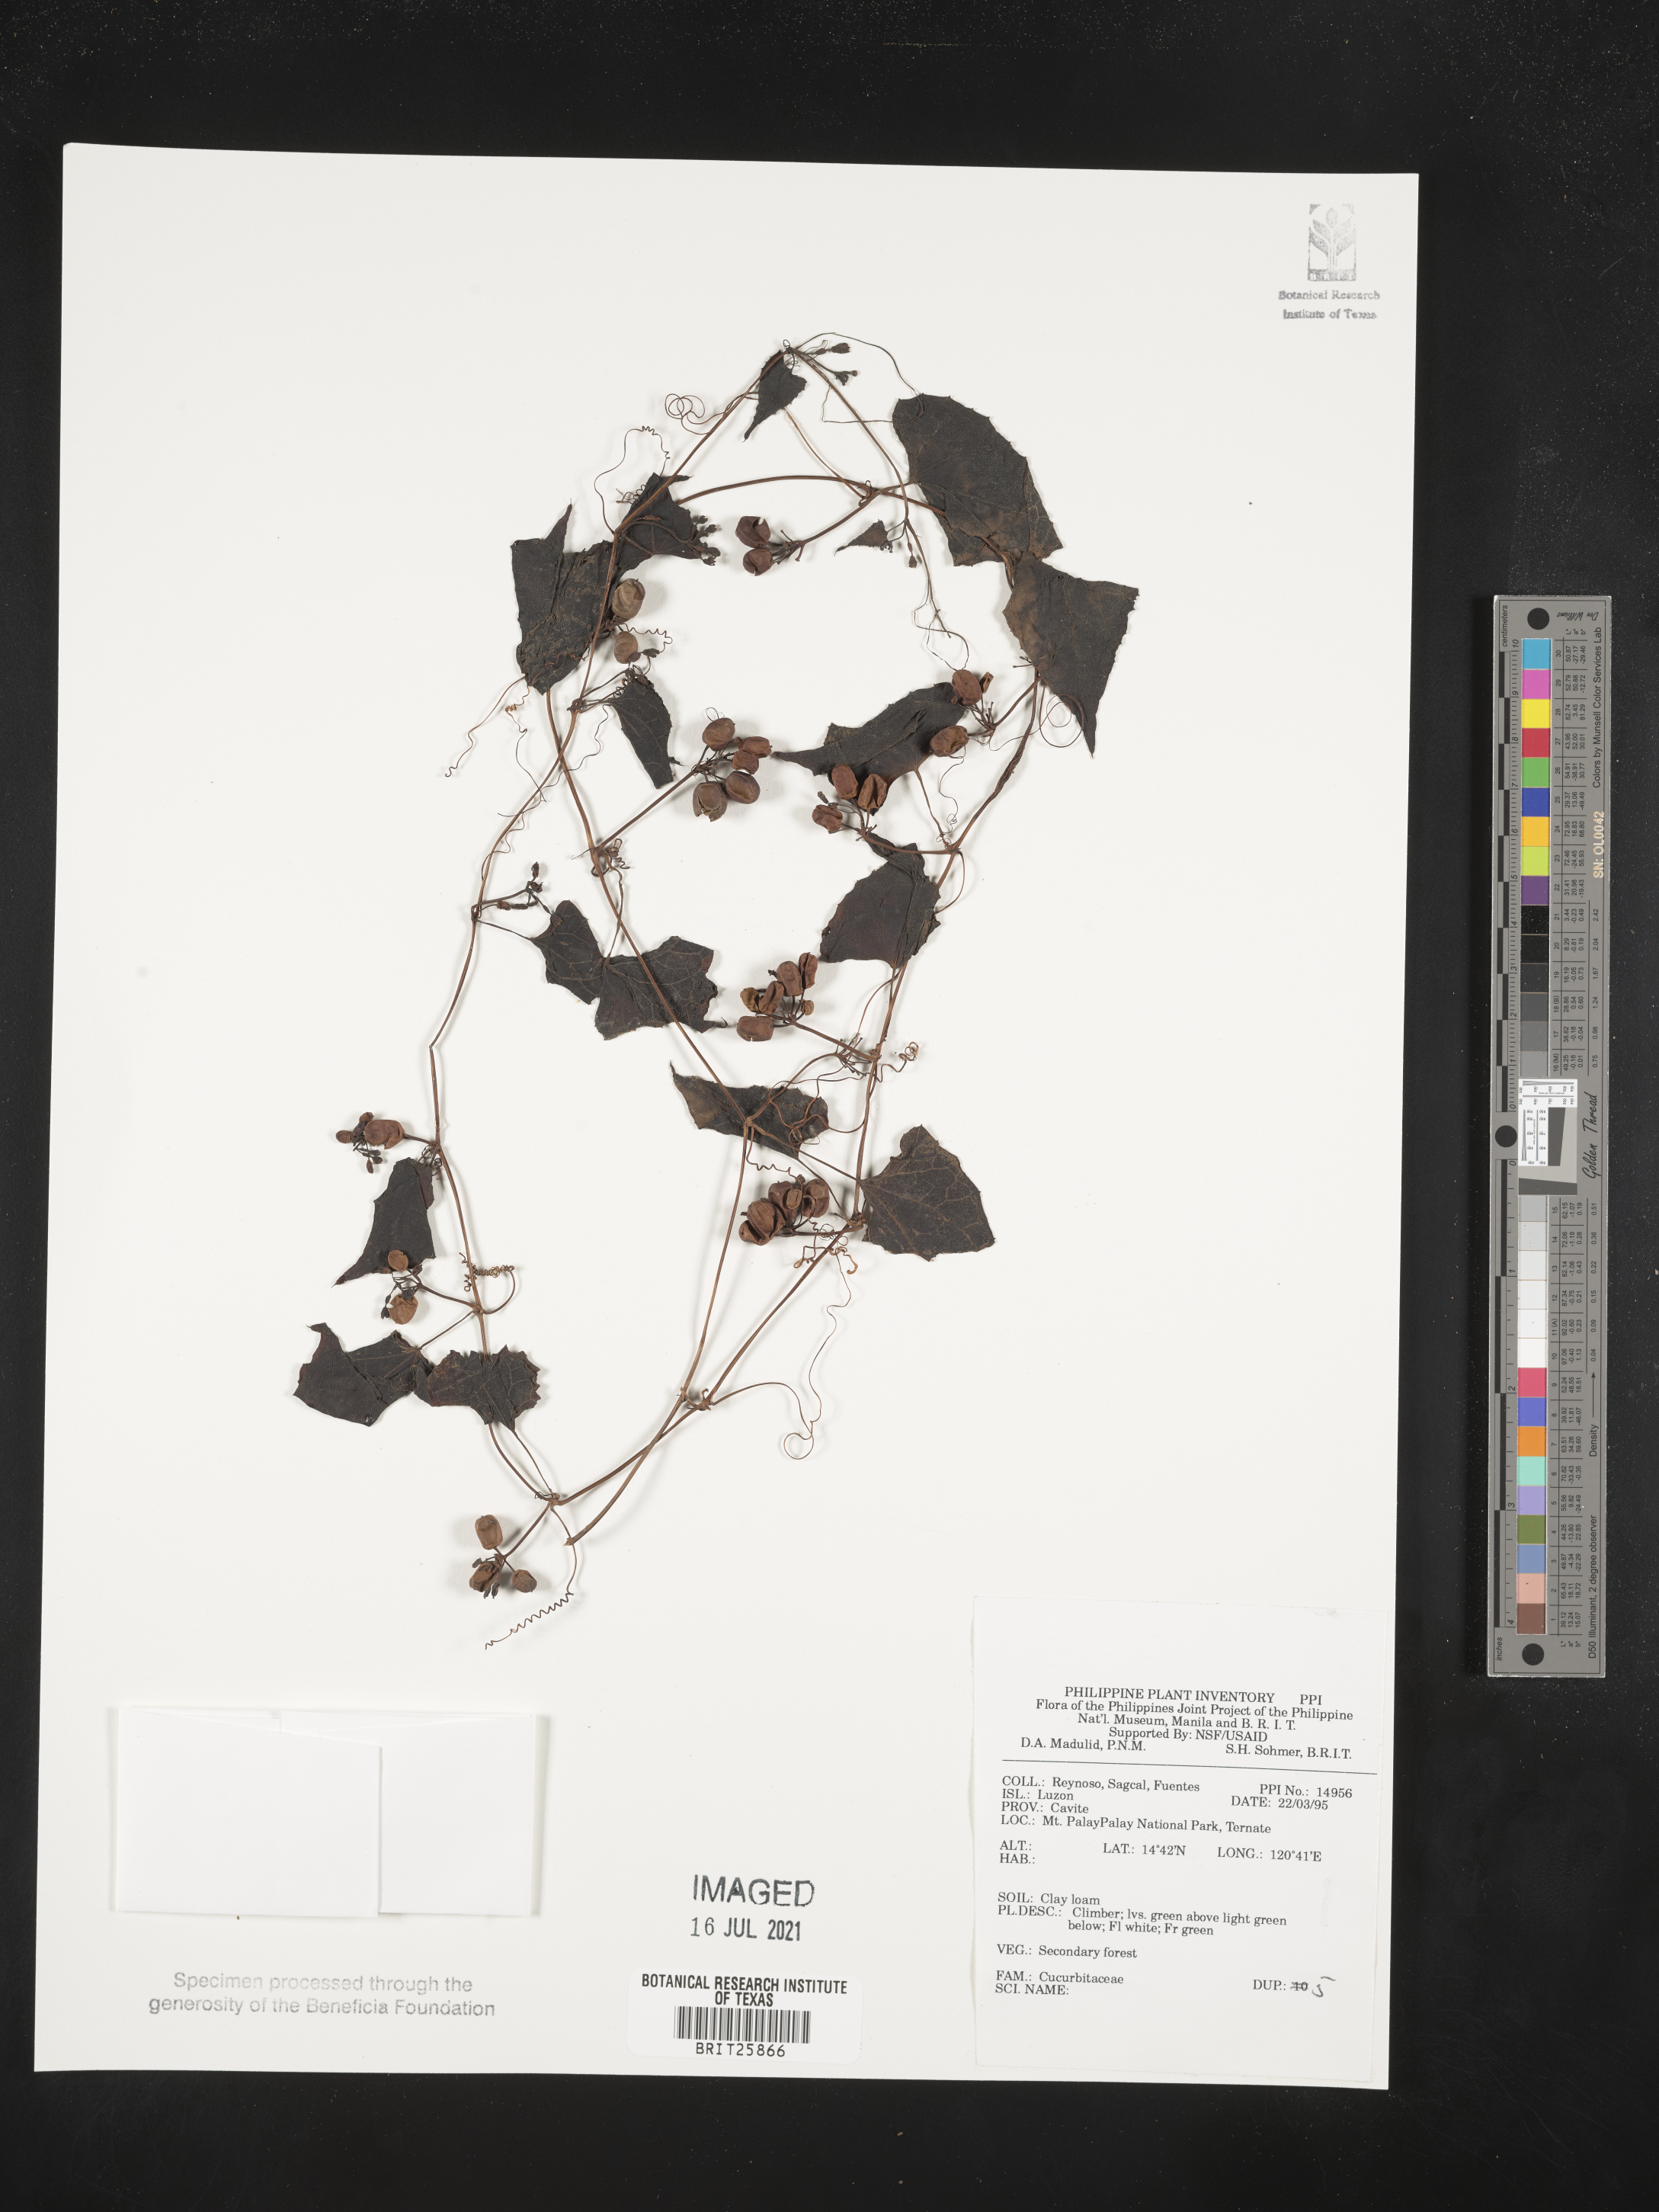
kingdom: Plantae
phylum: Tracheophyta
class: Magnoliopsida
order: Cucurbitales
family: Cucurbitaceae
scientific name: Cucurbitaceae
